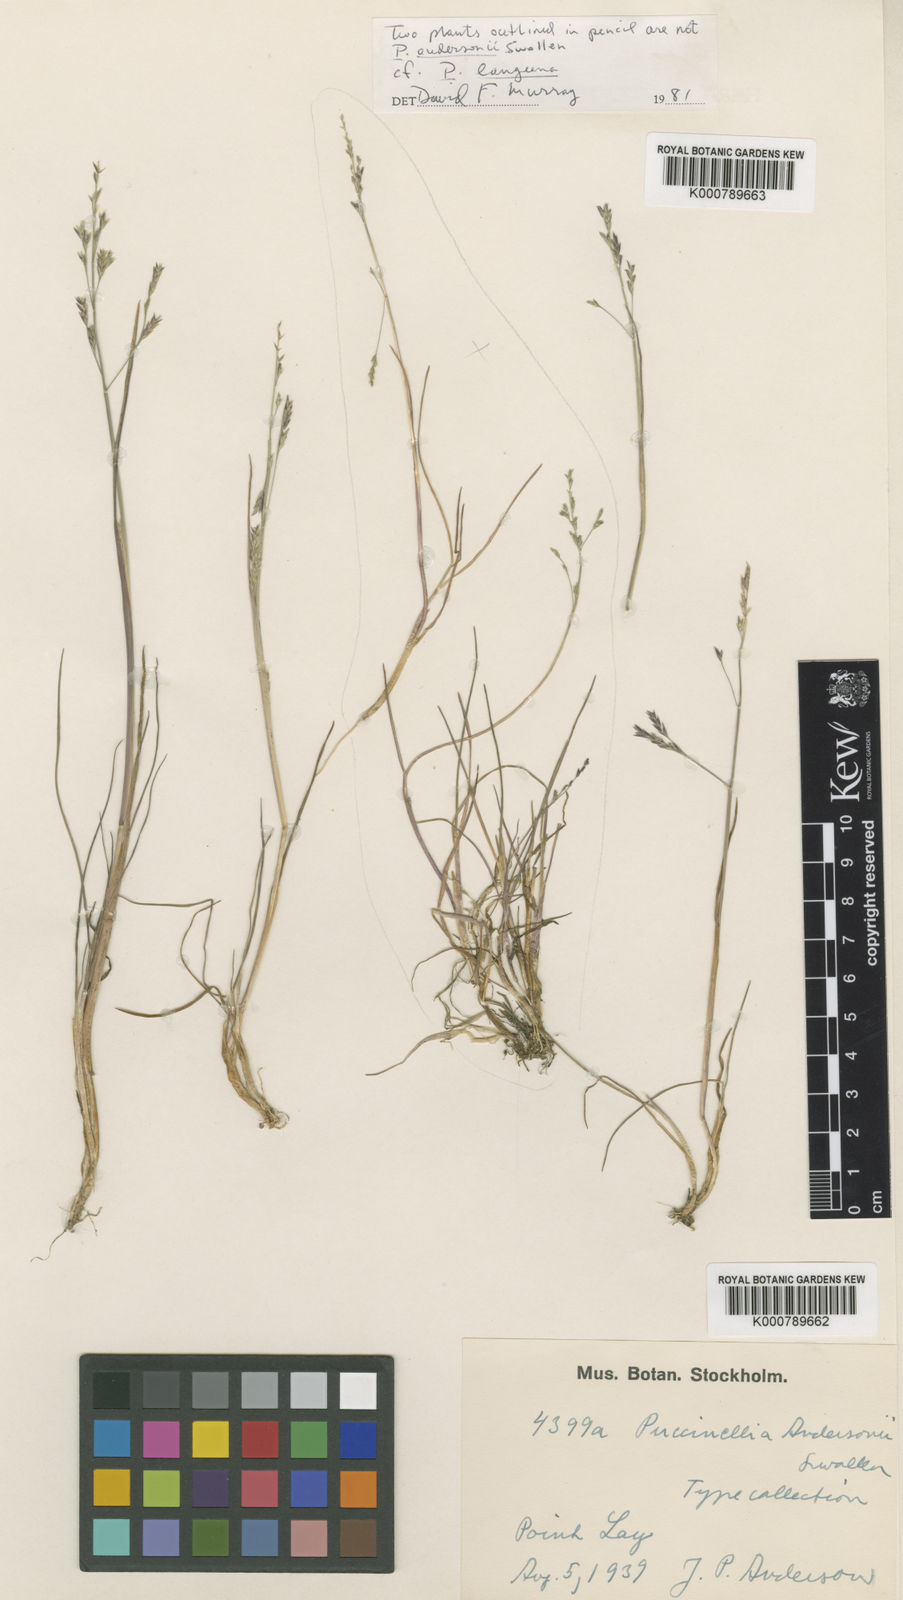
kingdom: Plantae
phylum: Tracheophyta
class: Liliopsida
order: Poales
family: Poaceae
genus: Puccinellia
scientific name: Puccinellia andersonii
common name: Anderson's alkali grass
